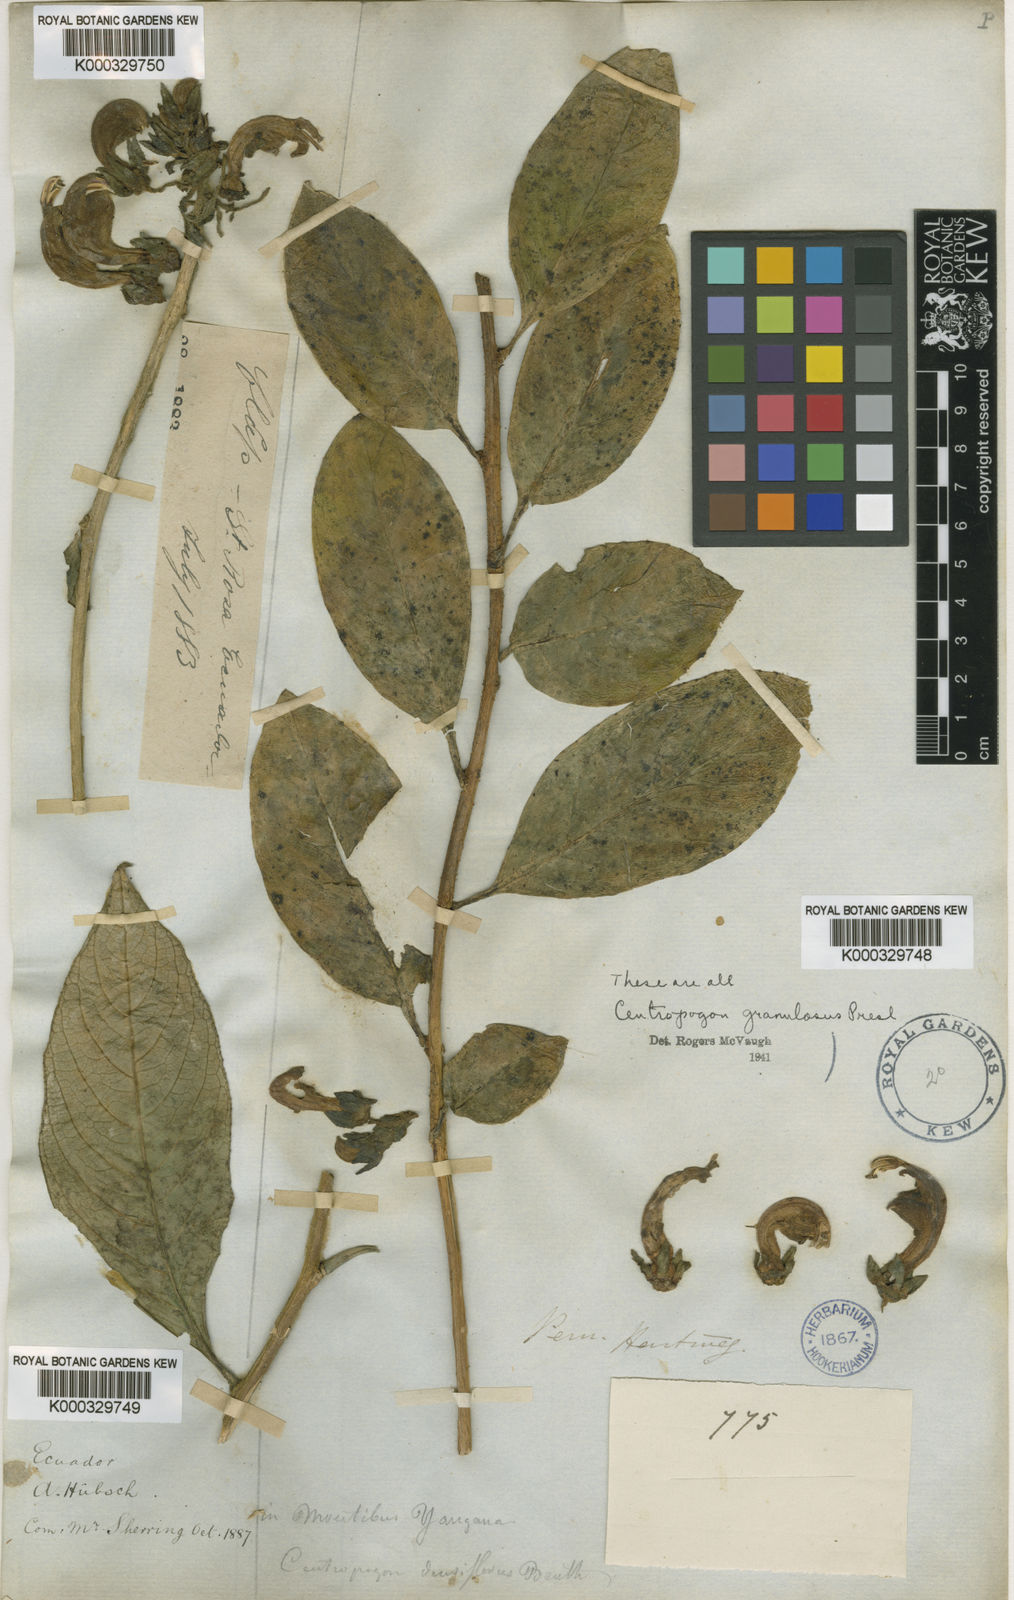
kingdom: Plantae
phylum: Tracheophyta
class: Magnoliopsida
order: Asterales
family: Campanulaceae
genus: Centropogon
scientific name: Centropogon densiflorus
